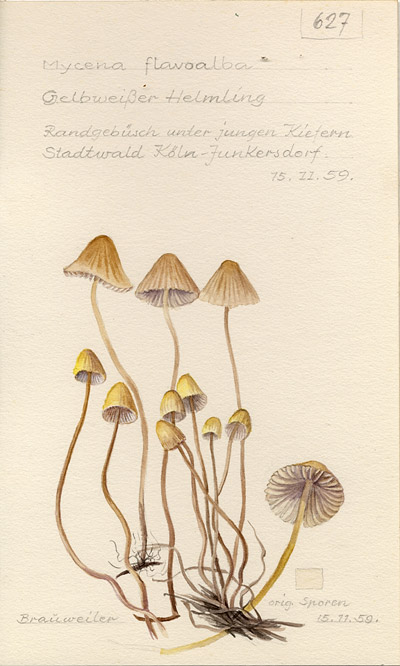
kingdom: Fungi
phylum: Basidiomycota
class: Agaricomycetes
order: Agaricales
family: Mycenaceae
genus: Atheniella
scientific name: Atheniella flavoalba
